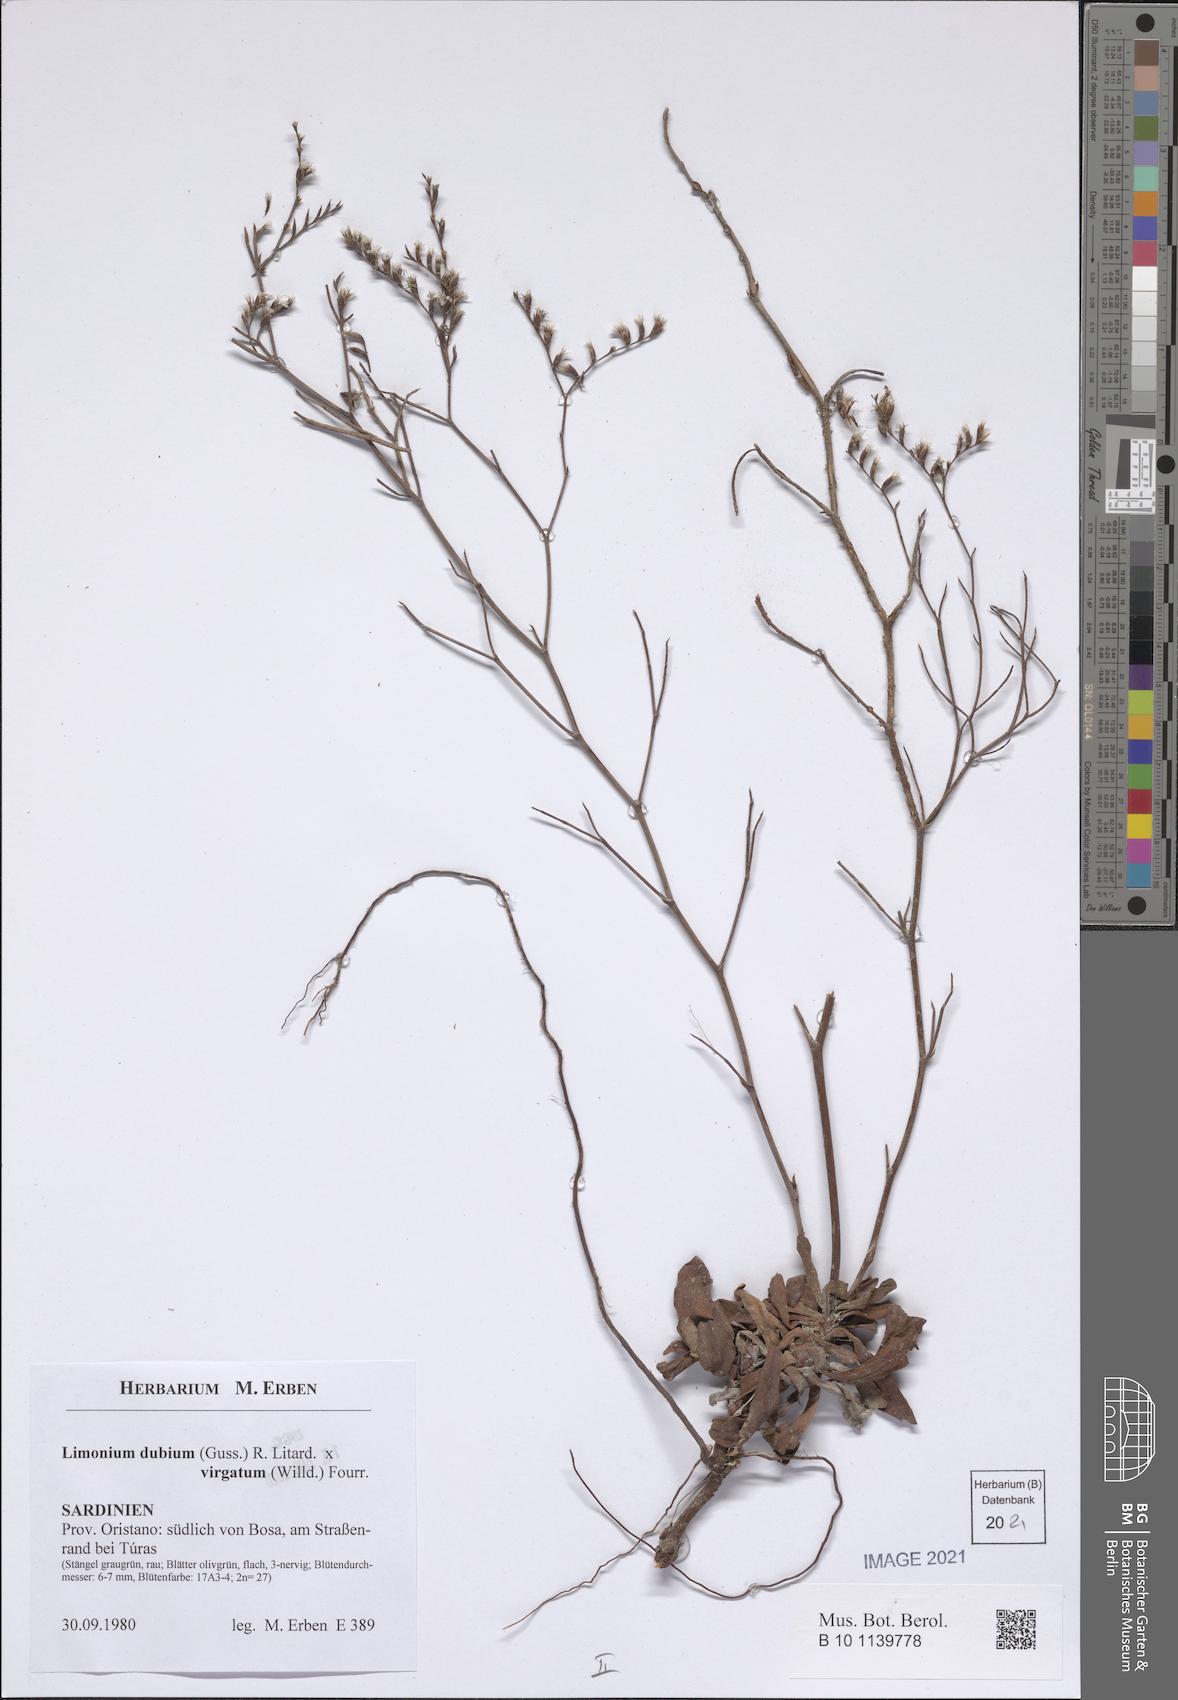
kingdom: Plantae
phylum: Tracheophyta
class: Magnoliopsida
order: Caryophyllales
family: Plumbaginaceae
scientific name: Plumbaginaceae
